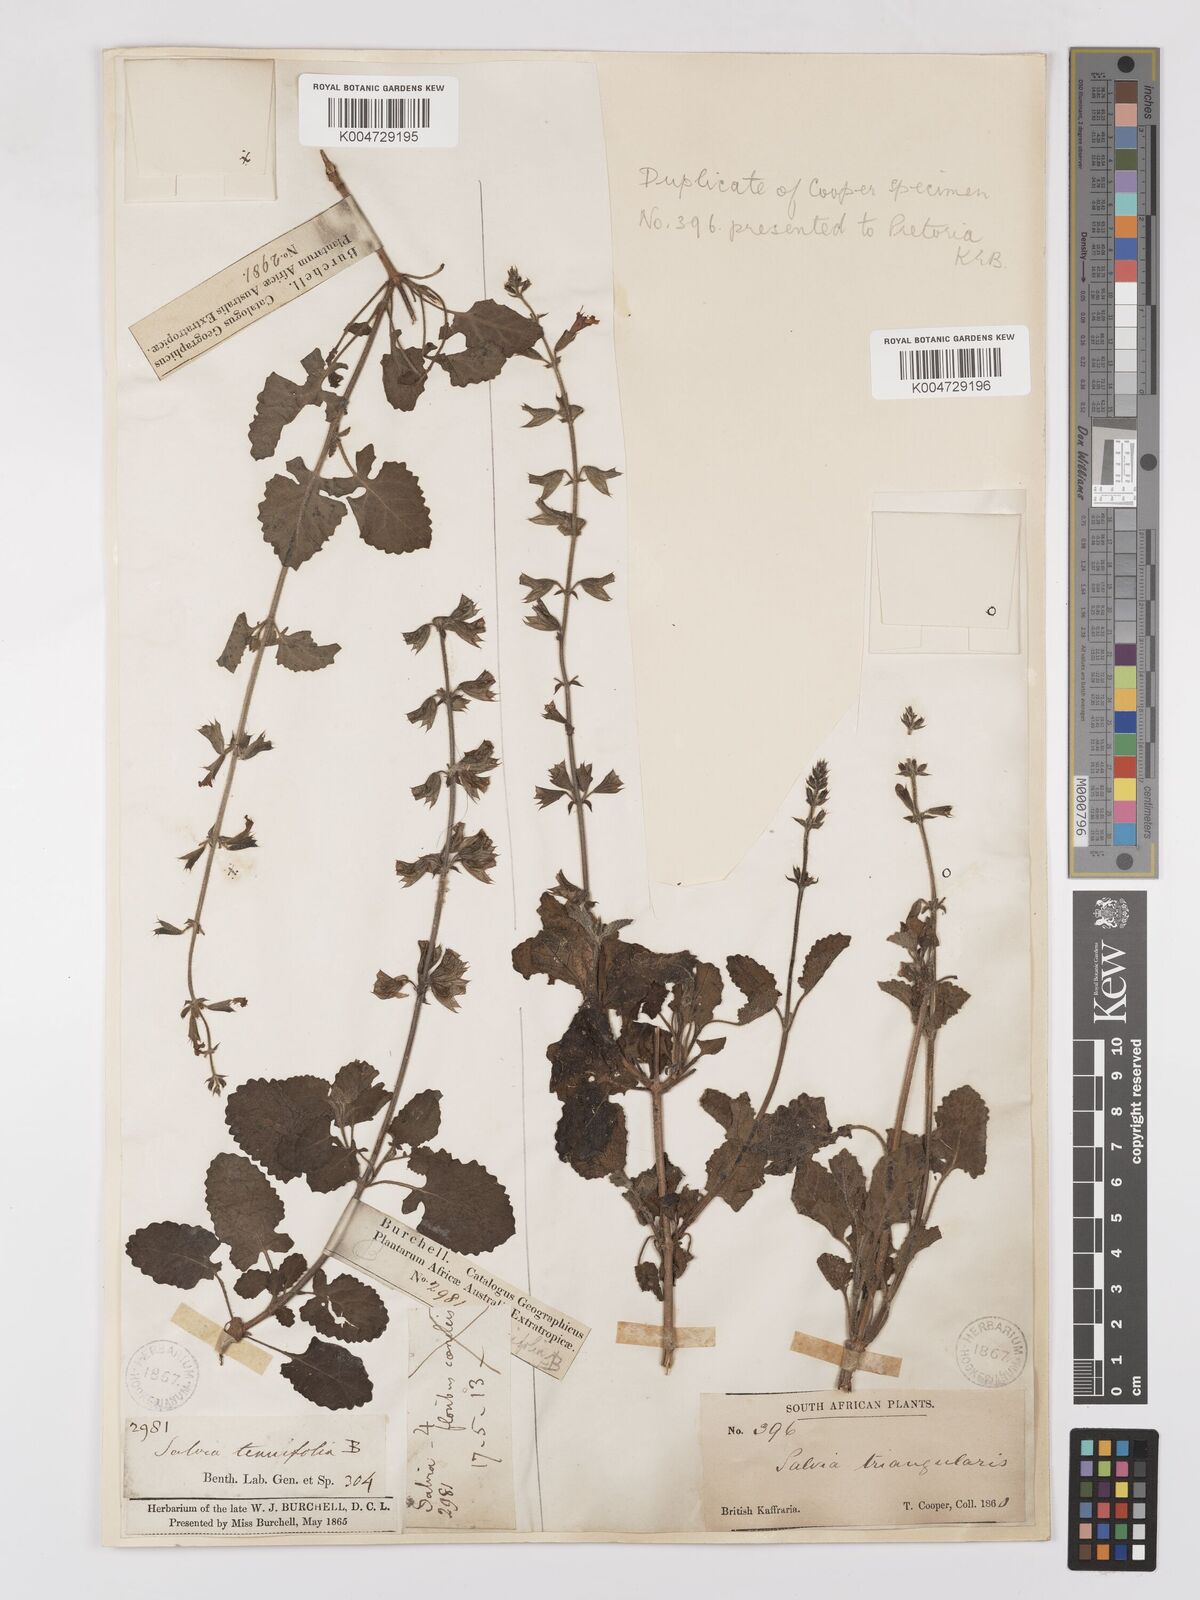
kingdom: Plantae
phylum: Tracheophyta
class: Magnoliopsida
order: Lamiales
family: Lamiaceae
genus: Salvia
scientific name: Salvia triangularis
